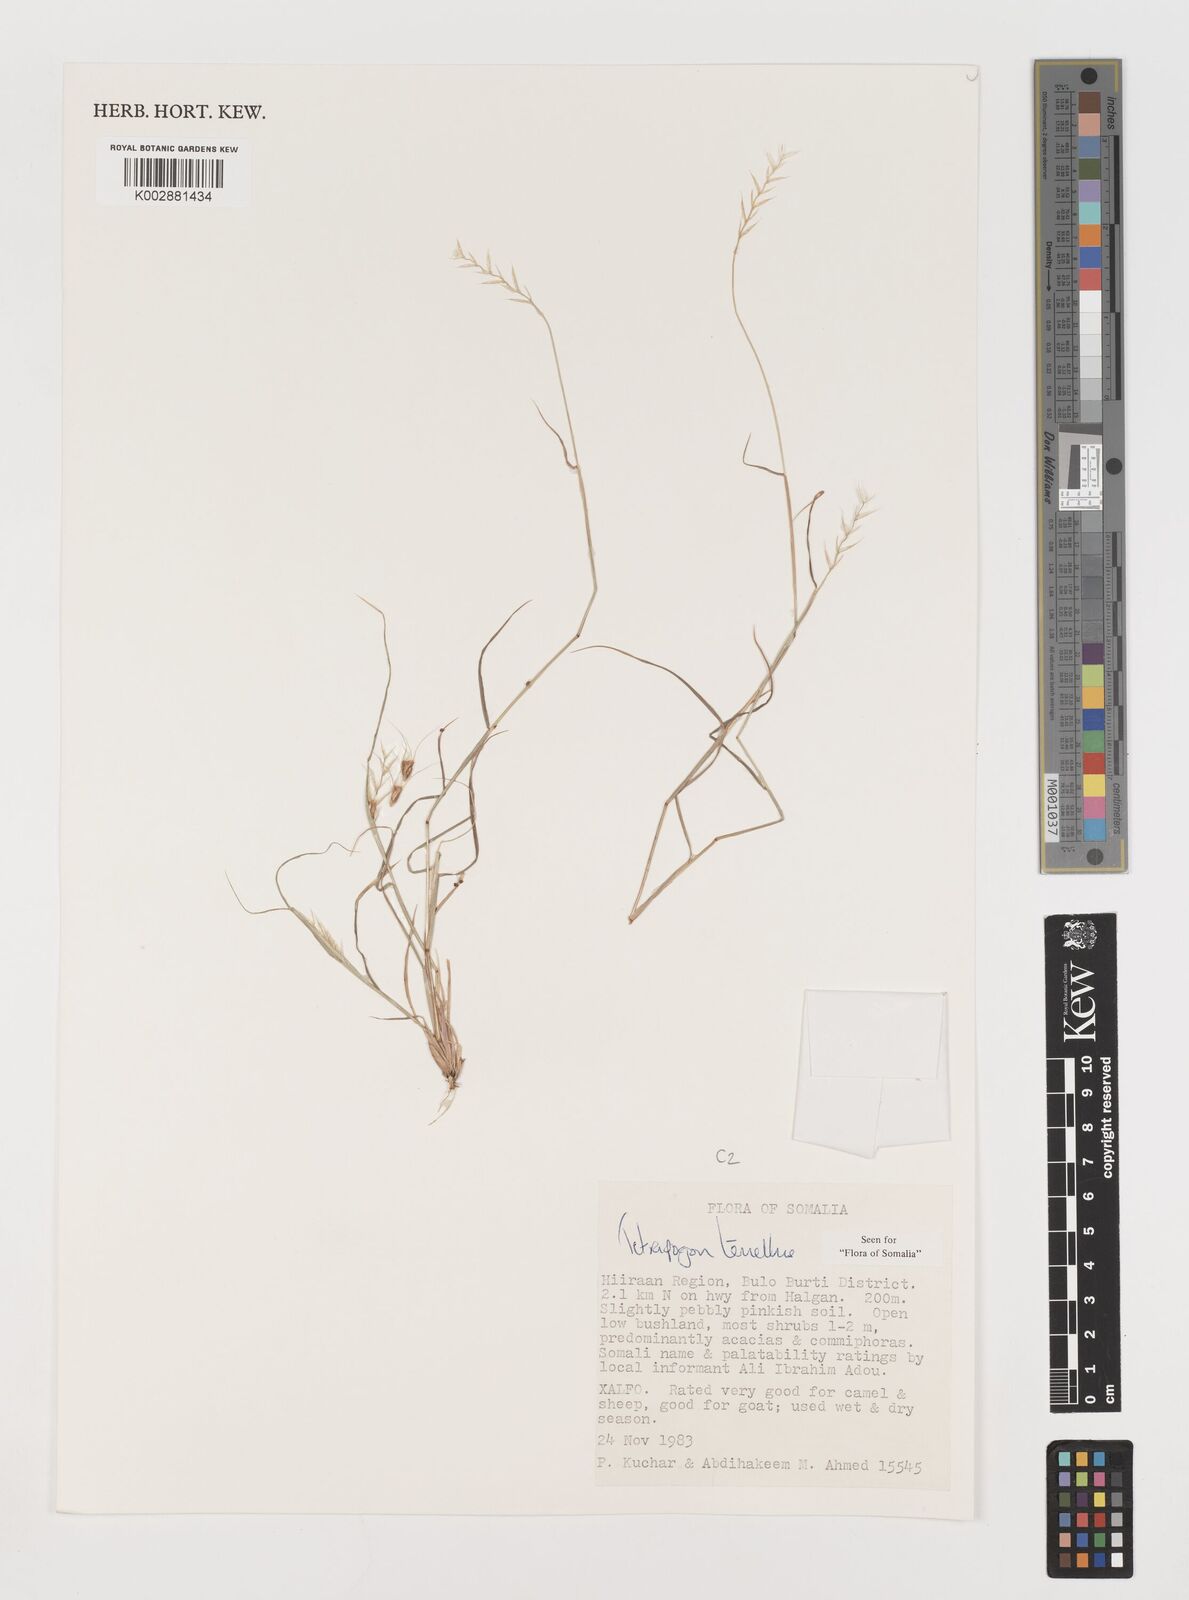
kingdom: Plantae
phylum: Tracheophyta
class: Liliopsida
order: Poales
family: Poaceae
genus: Tetrapogon
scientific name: Tetrapogon tenellus
